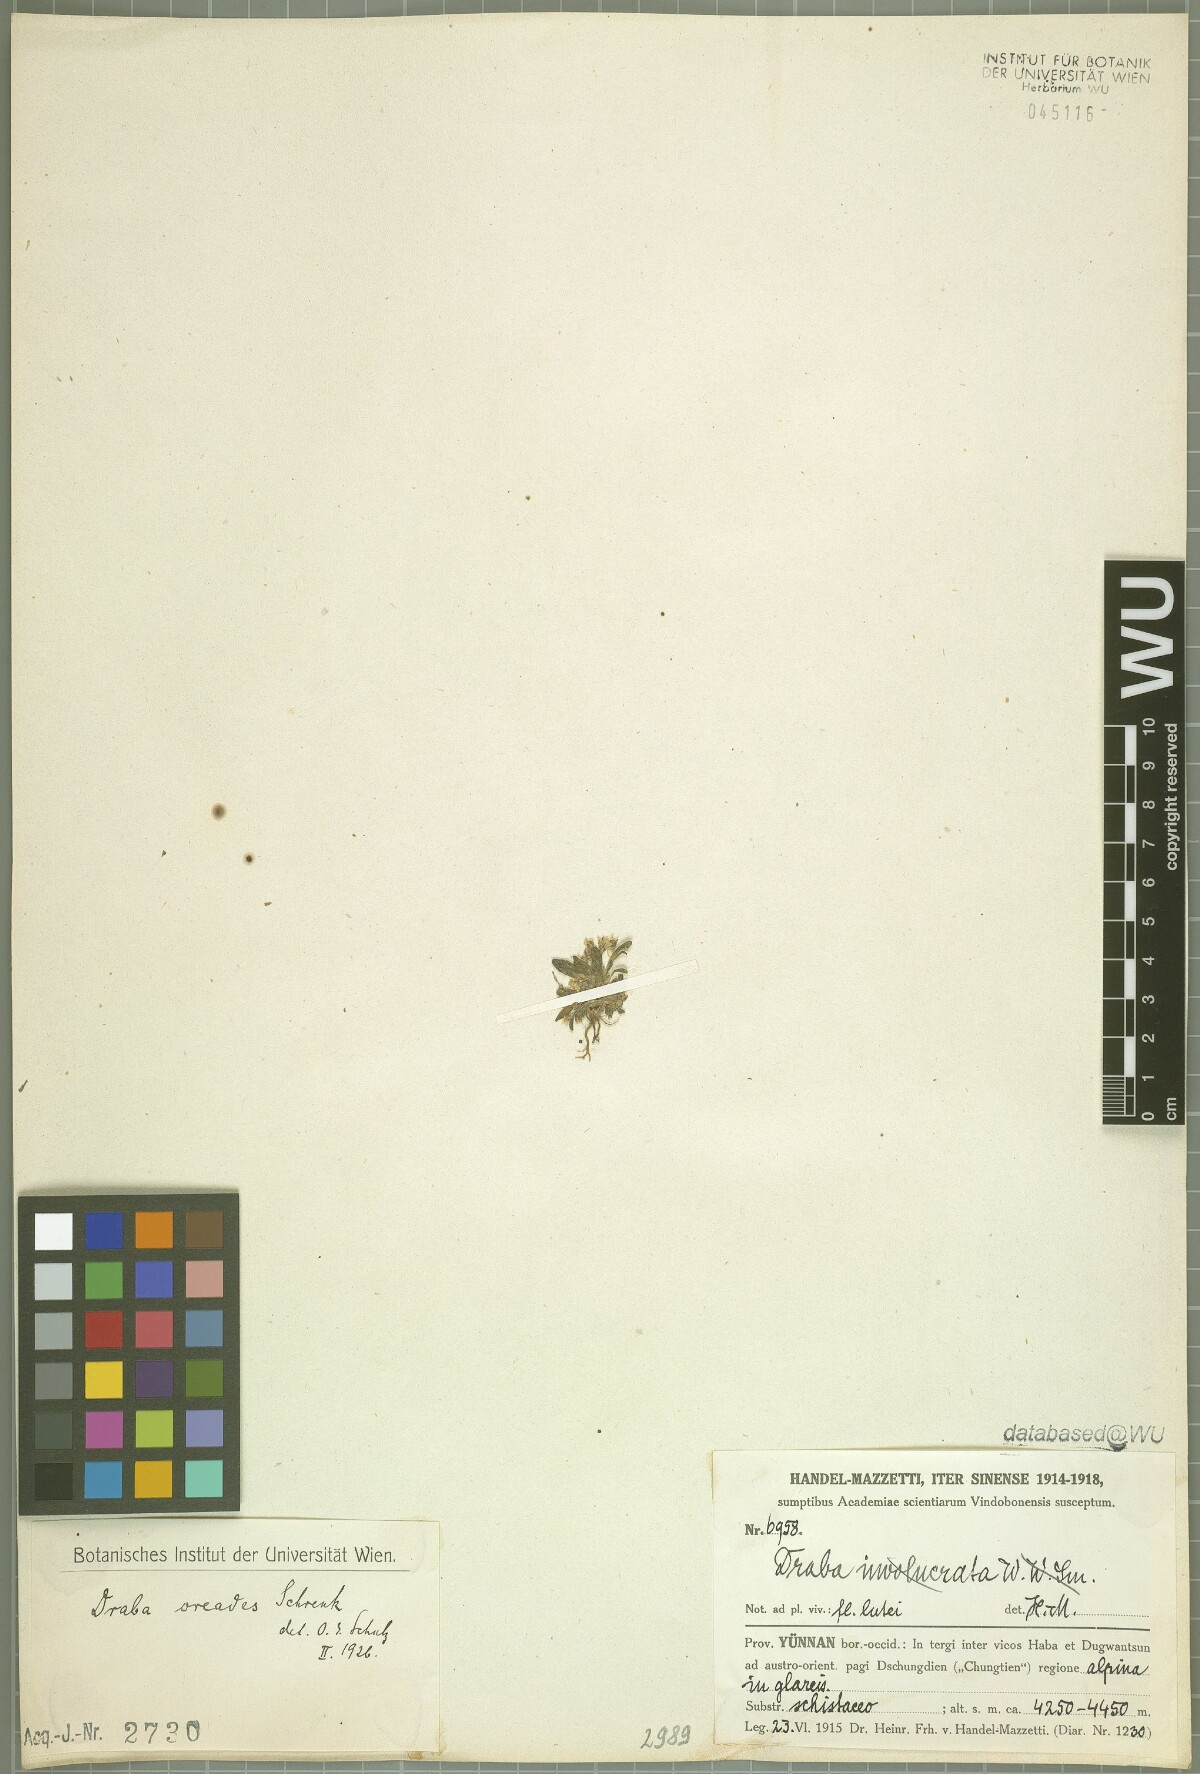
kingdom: Plantae
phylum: Tracheophyta
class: Magnoliopsida
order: Brassicales
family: Brassicaceae
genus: Draba
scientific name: Draba oreades
